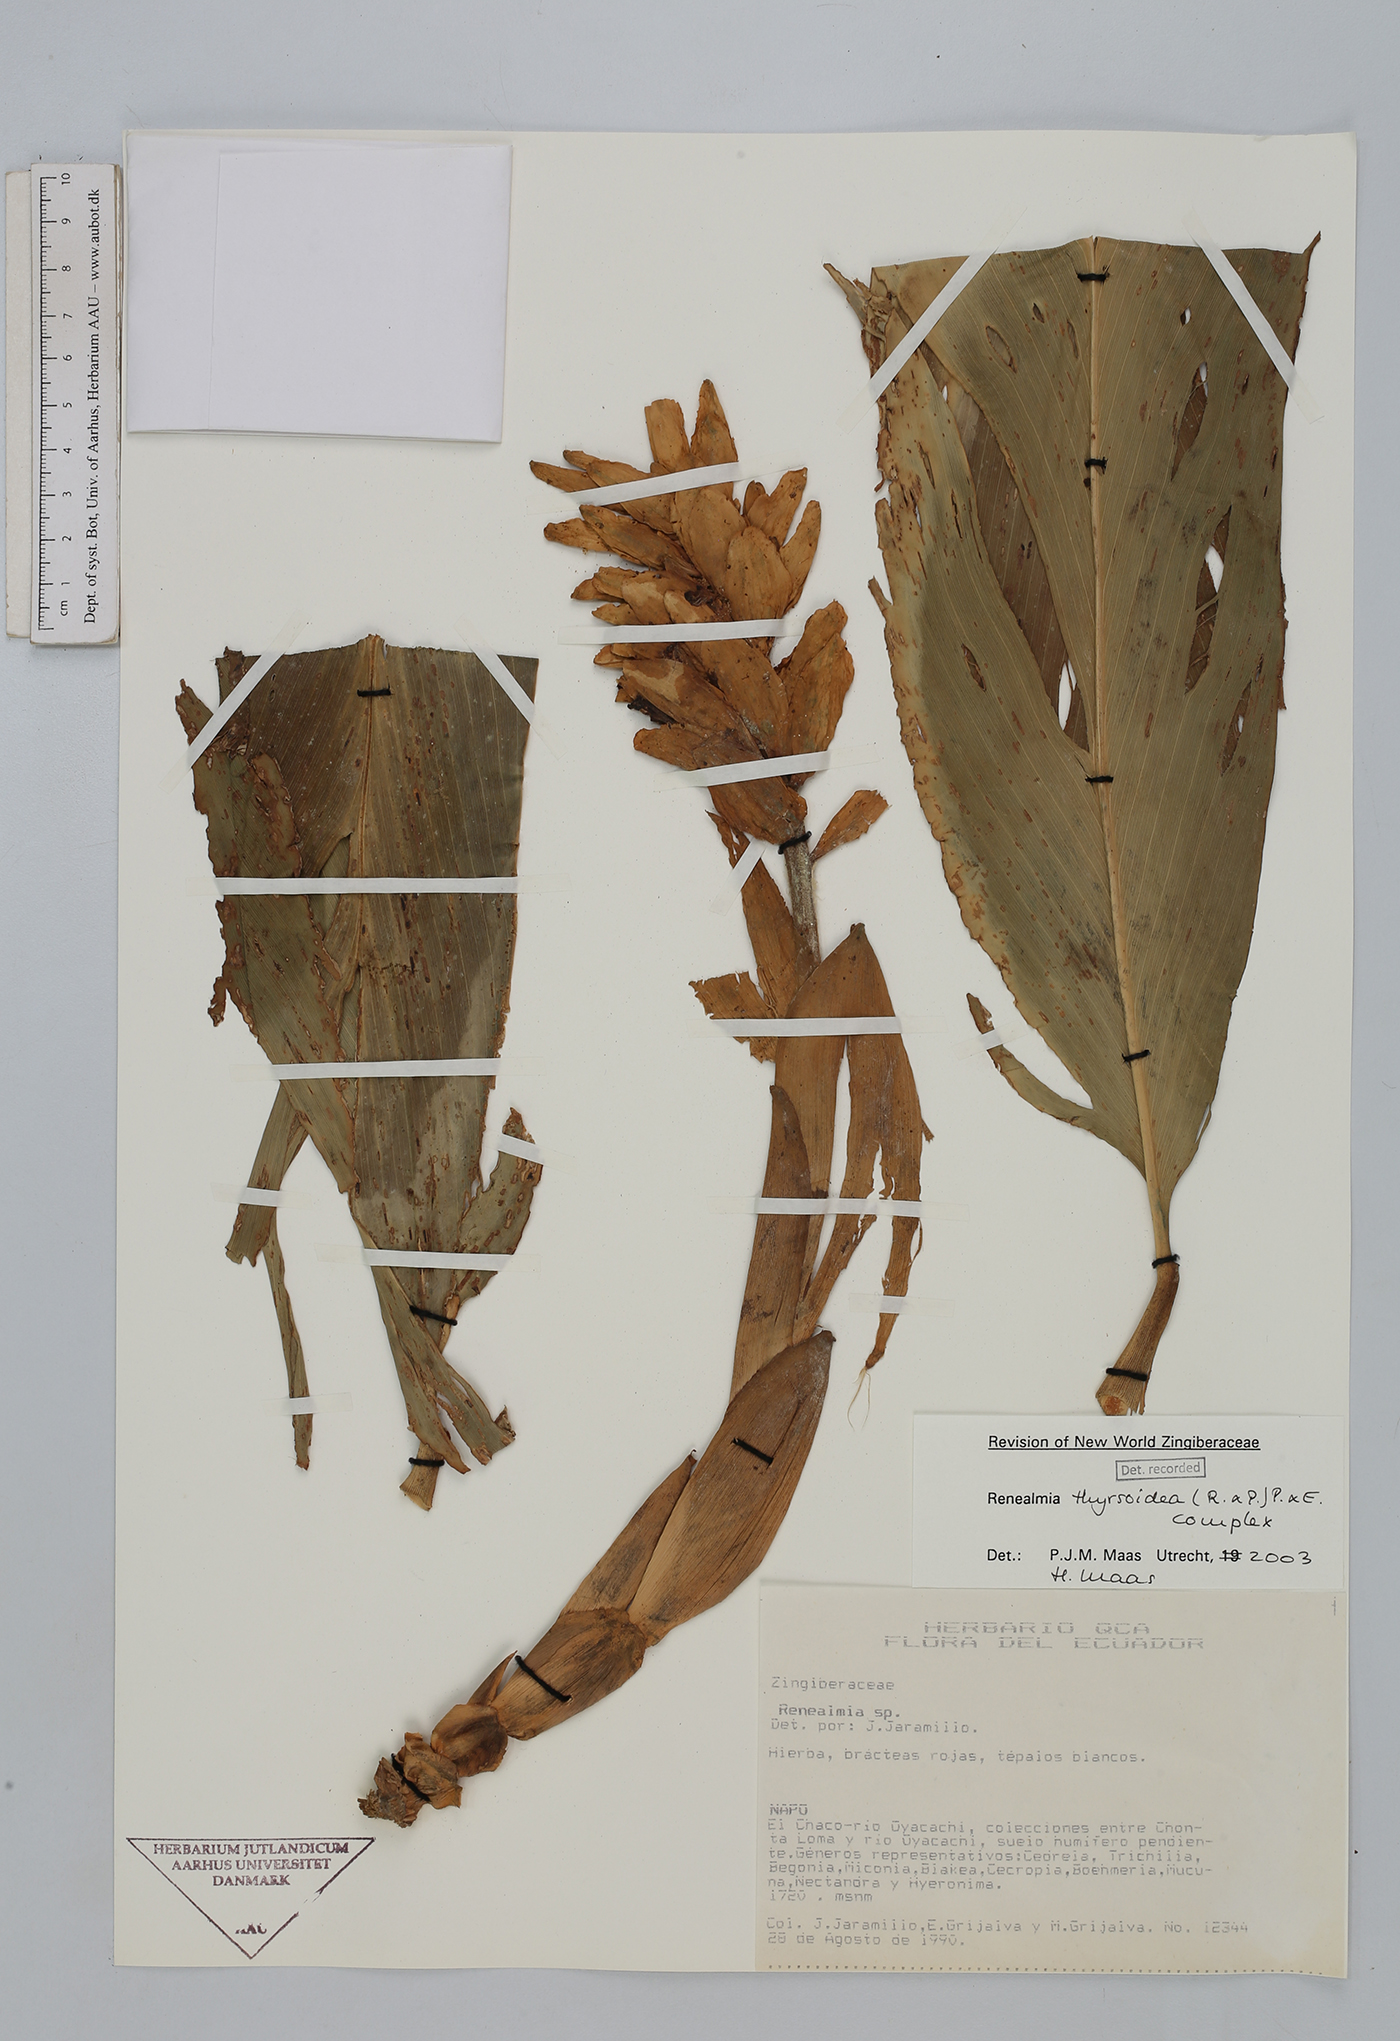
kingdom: Plantae
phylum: Tracheophyta
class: Liliopsida
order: Zingiberales
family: Zingiberaceae
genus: Renealmia
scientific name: Renealmia thyrsoidea
